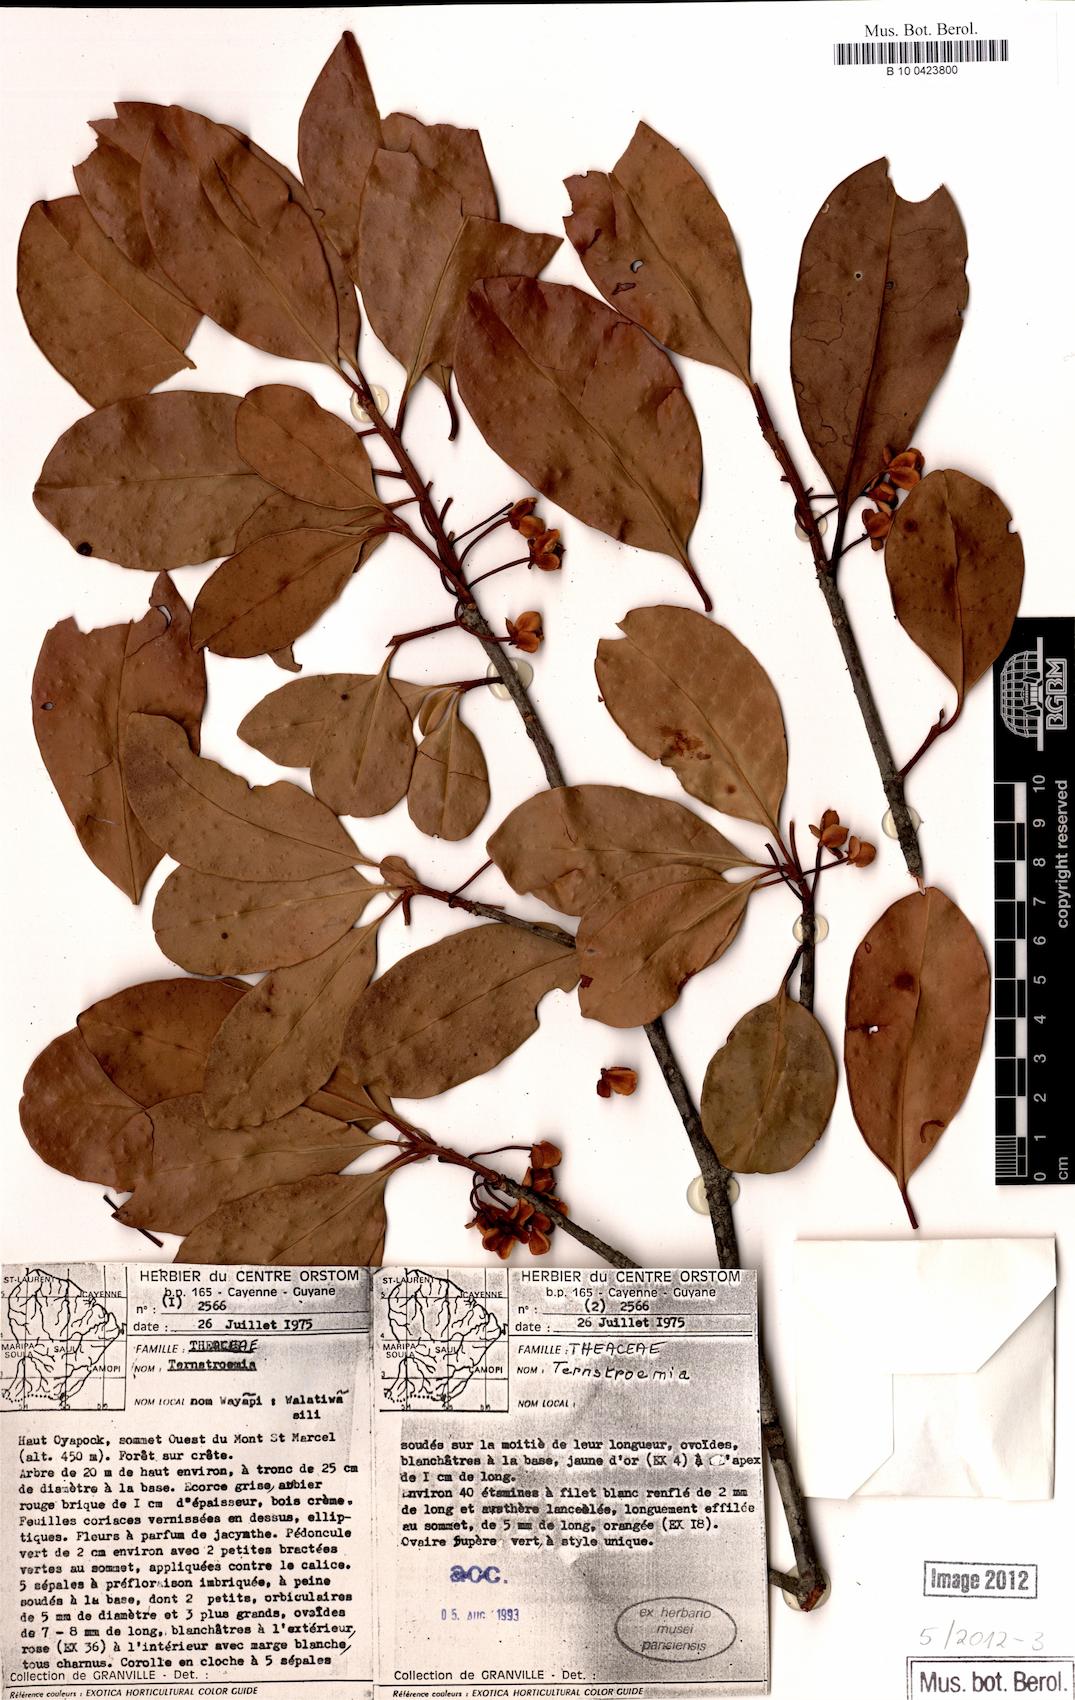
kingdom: Plantae
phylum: Tracheophyta
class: Magnoliopsida
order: Ericales
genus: Ternstroemia
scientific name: Ternstroemia
